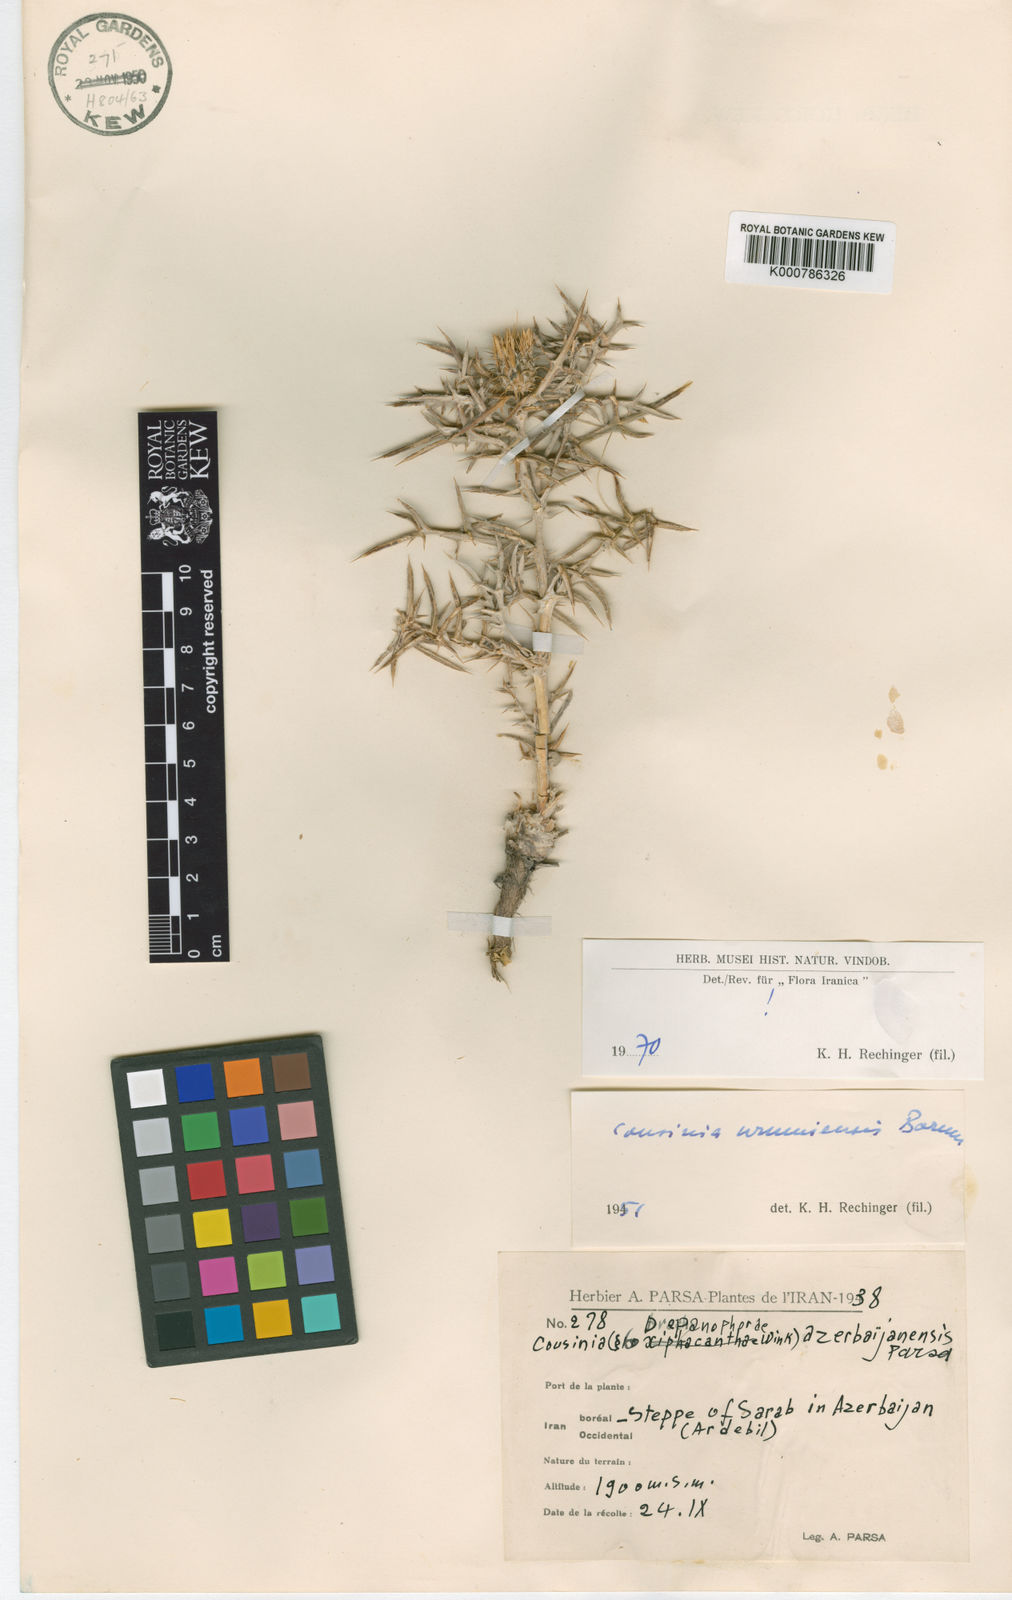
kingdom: Plantae
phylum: Tracheophyta
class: Magnoliopsida
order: Asterales
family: Asteraceae
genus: Cousinia
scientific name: Cousinia urumiensis
